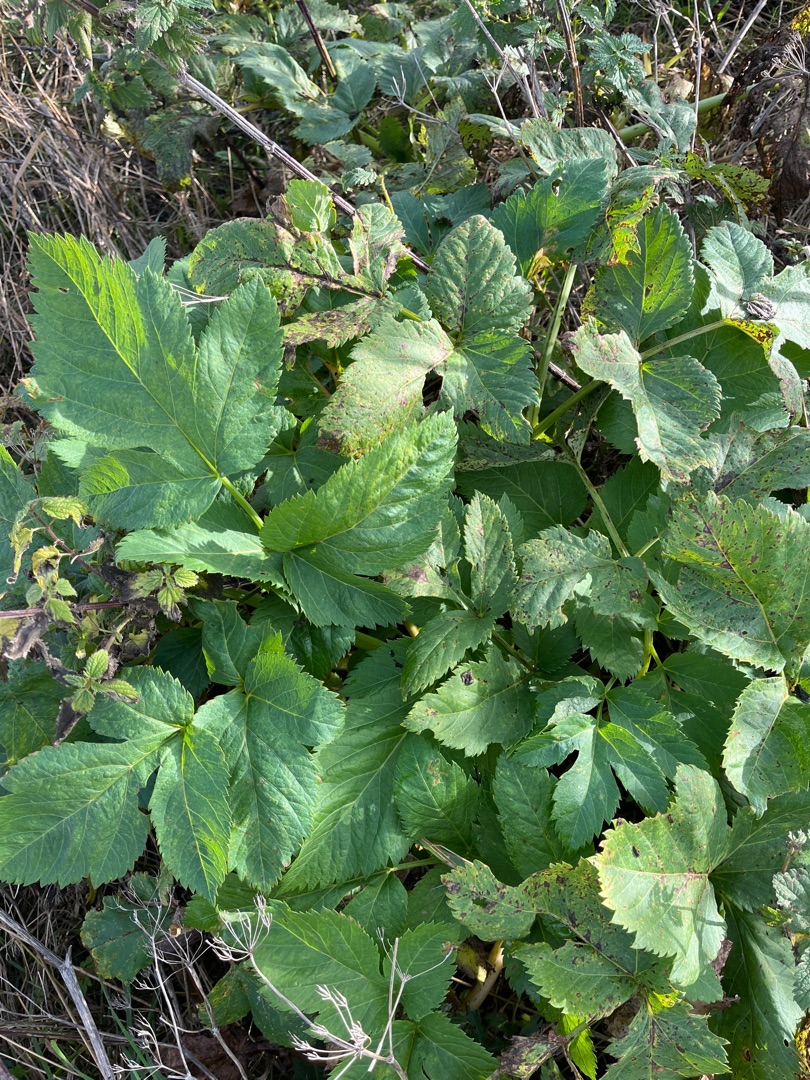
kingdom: Plantae
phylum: Tracheophyta
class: Magnoliopsida
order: Apiales
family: Apiaceae
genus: Angelica
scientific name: Angelica archangelica
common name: Kvan
